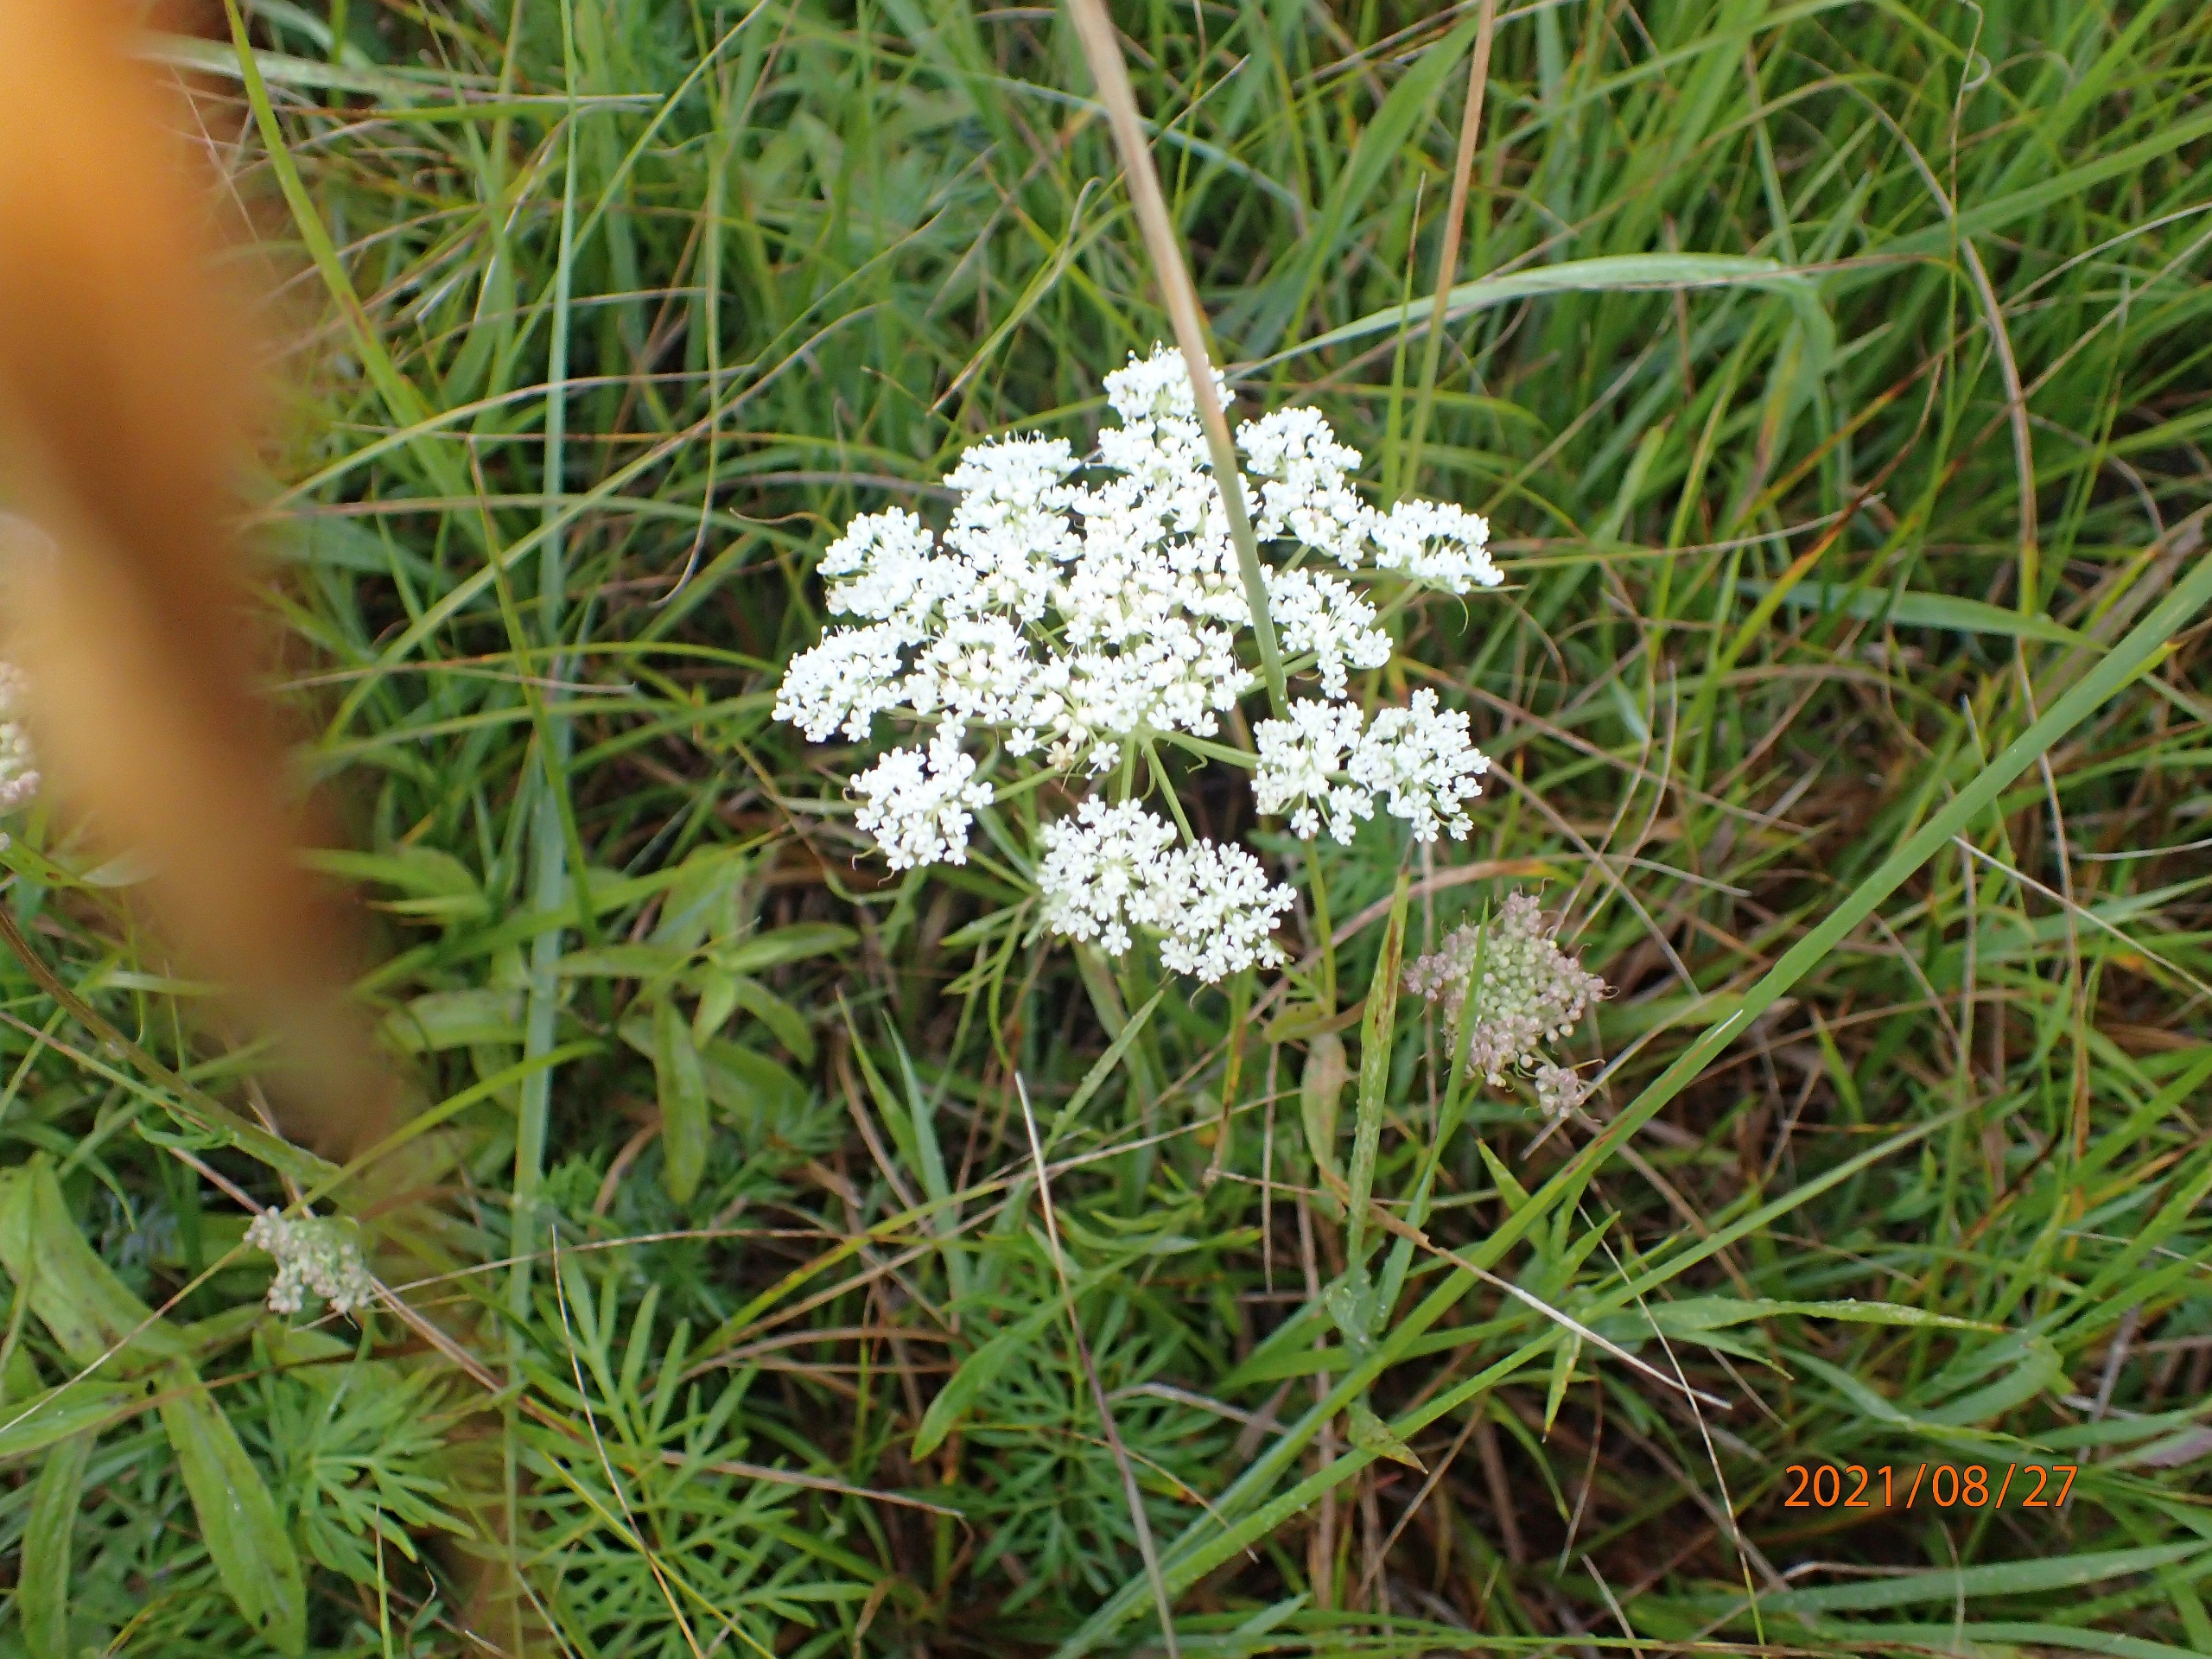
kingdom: Plantae
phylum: Tracheophyta
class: Magnoliopsida
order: Apiales
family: Apiaceae
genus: Kadenia
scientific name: Kadenia dubia
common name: Brændeskærm
